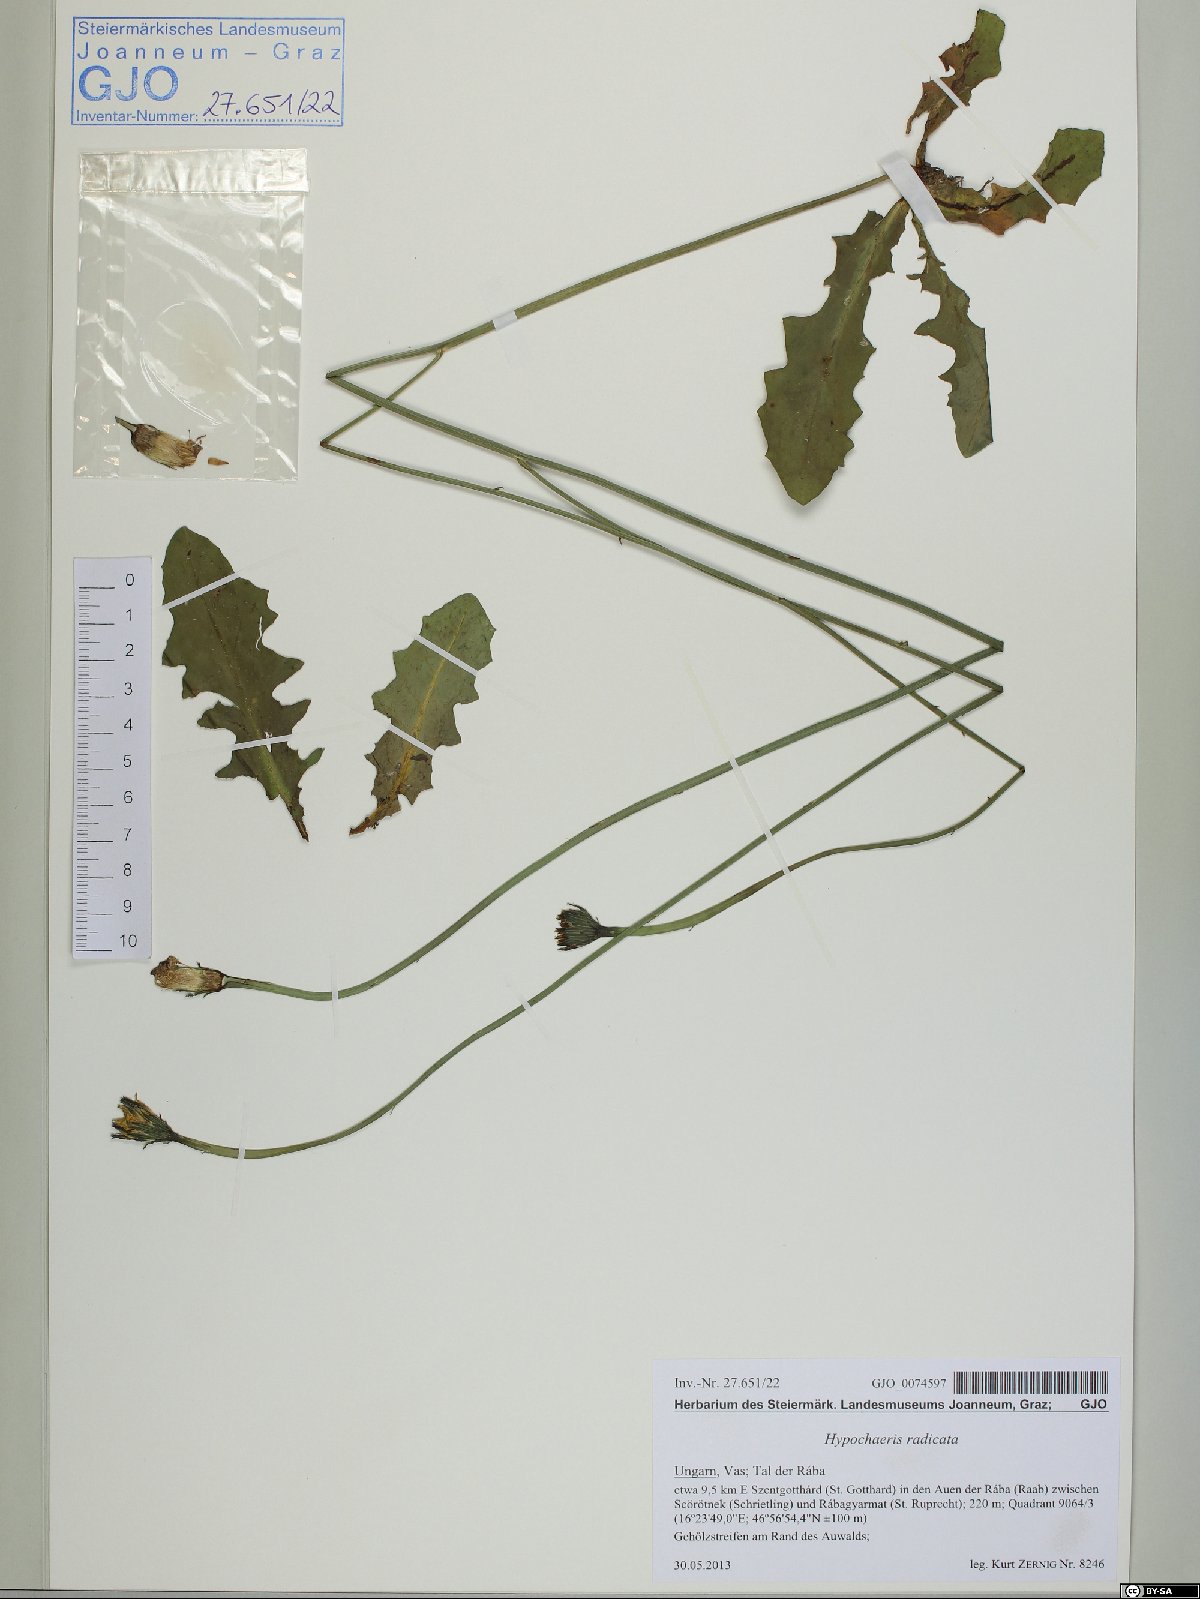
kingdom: Plantae
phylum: Tracheophyta
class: Magnoliopsida
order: Asterales
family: Asteraceae
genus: Hypochaeris
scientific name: Hypochaeris radicata
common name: Flatweed
